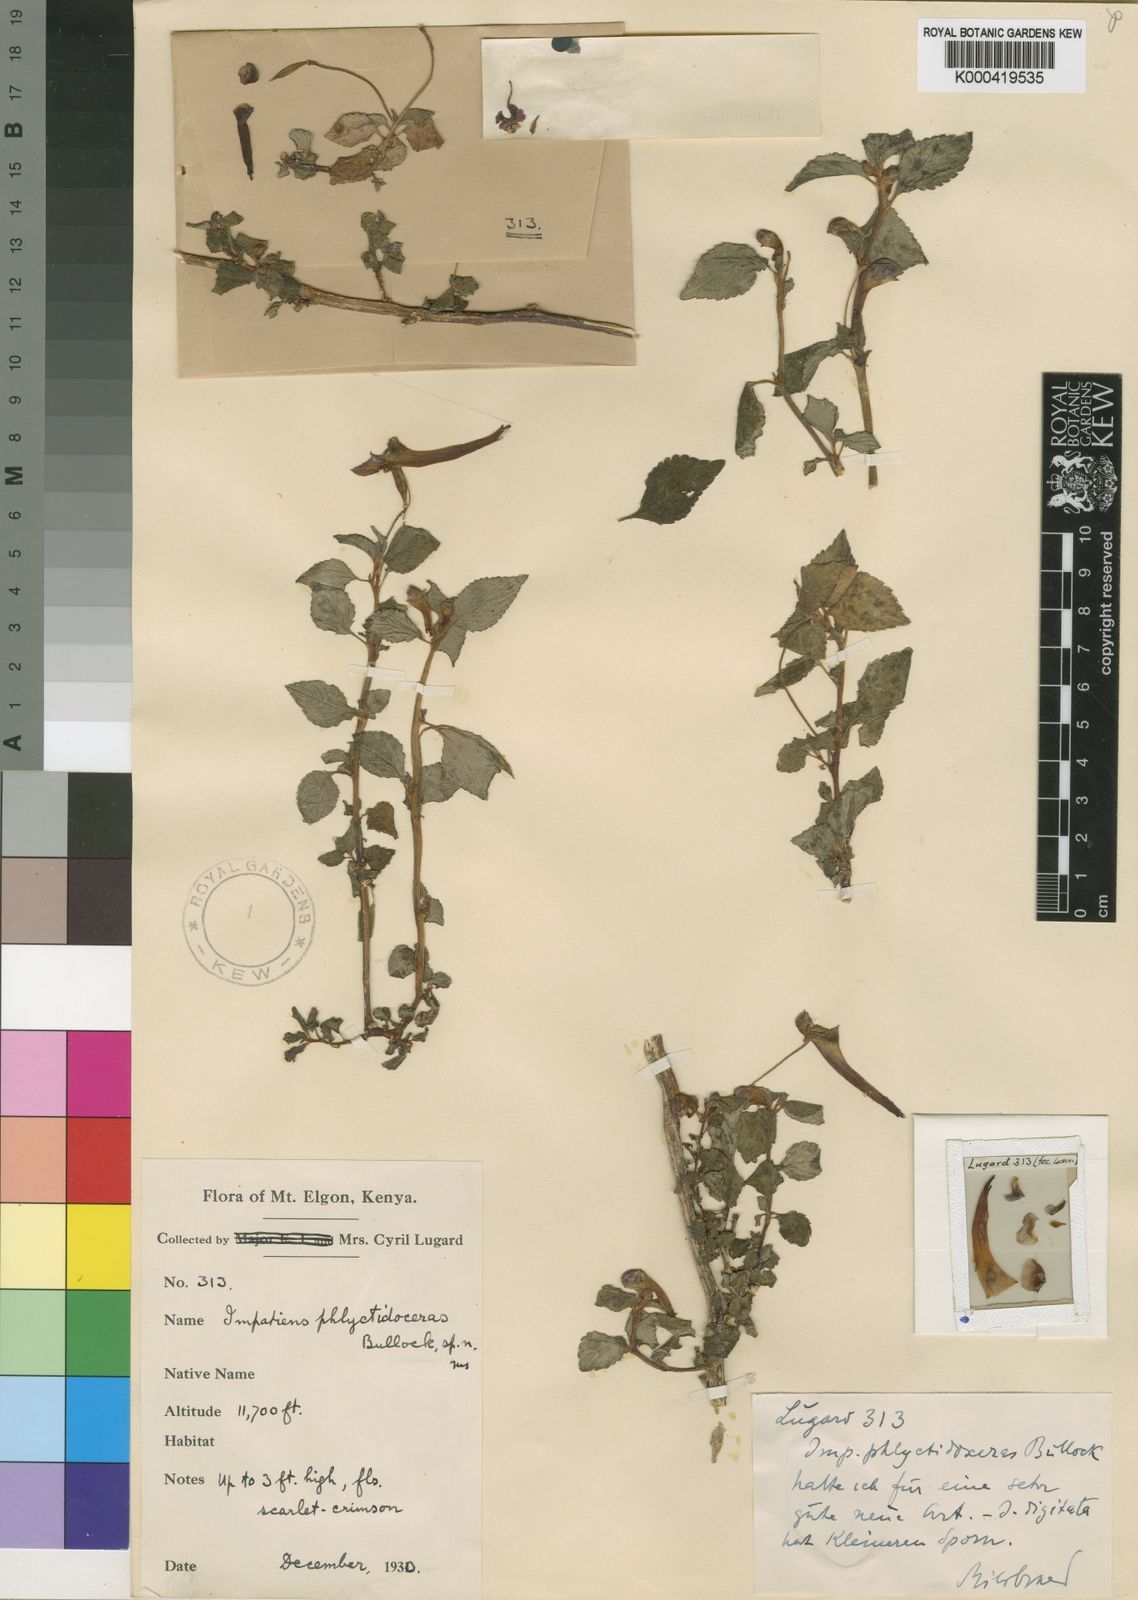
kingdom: Plantae
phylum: Tracheophyta
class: Magnoliopsida
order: Ericales
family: Balsaminaceae
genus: Impatiens
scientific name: Impatiens digitata
